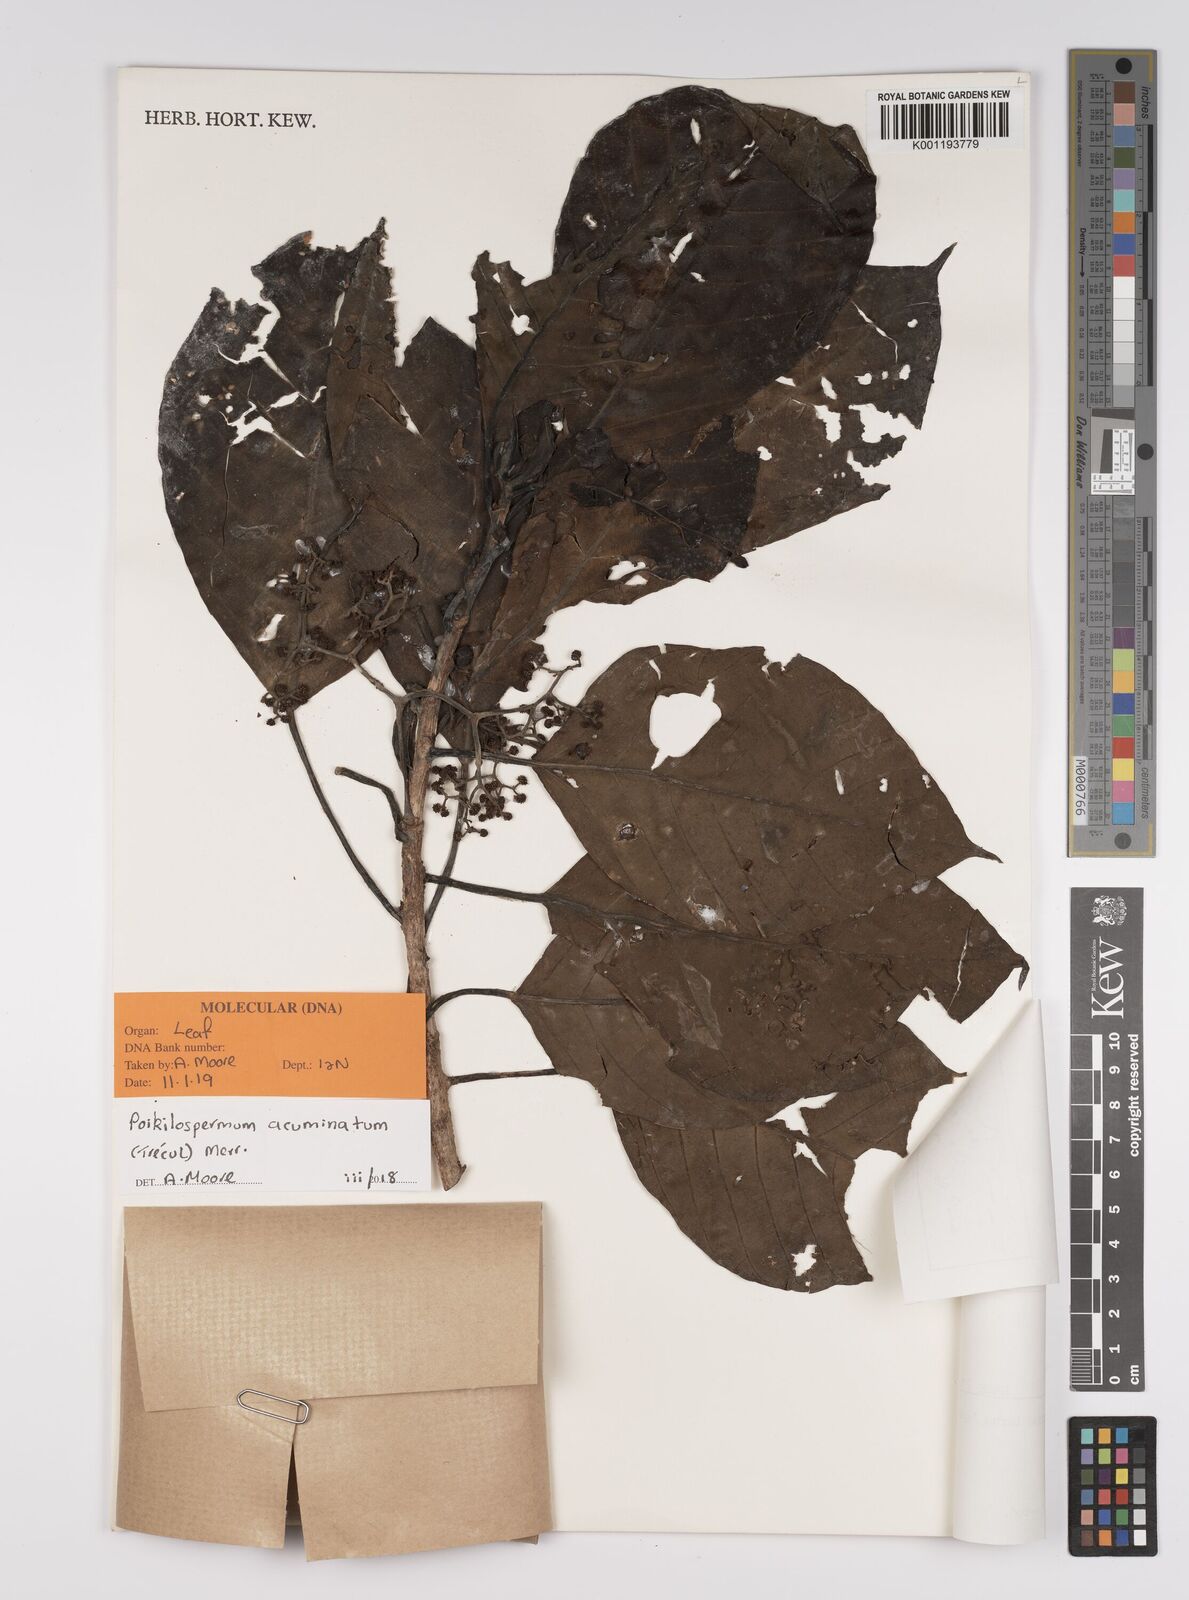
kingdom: Plantae
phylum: Tracheophyta
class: Magnoliopsida
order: Rosales
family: Urticaceae
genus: Poikilospermum
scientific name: Poikilospermum acuminatum
